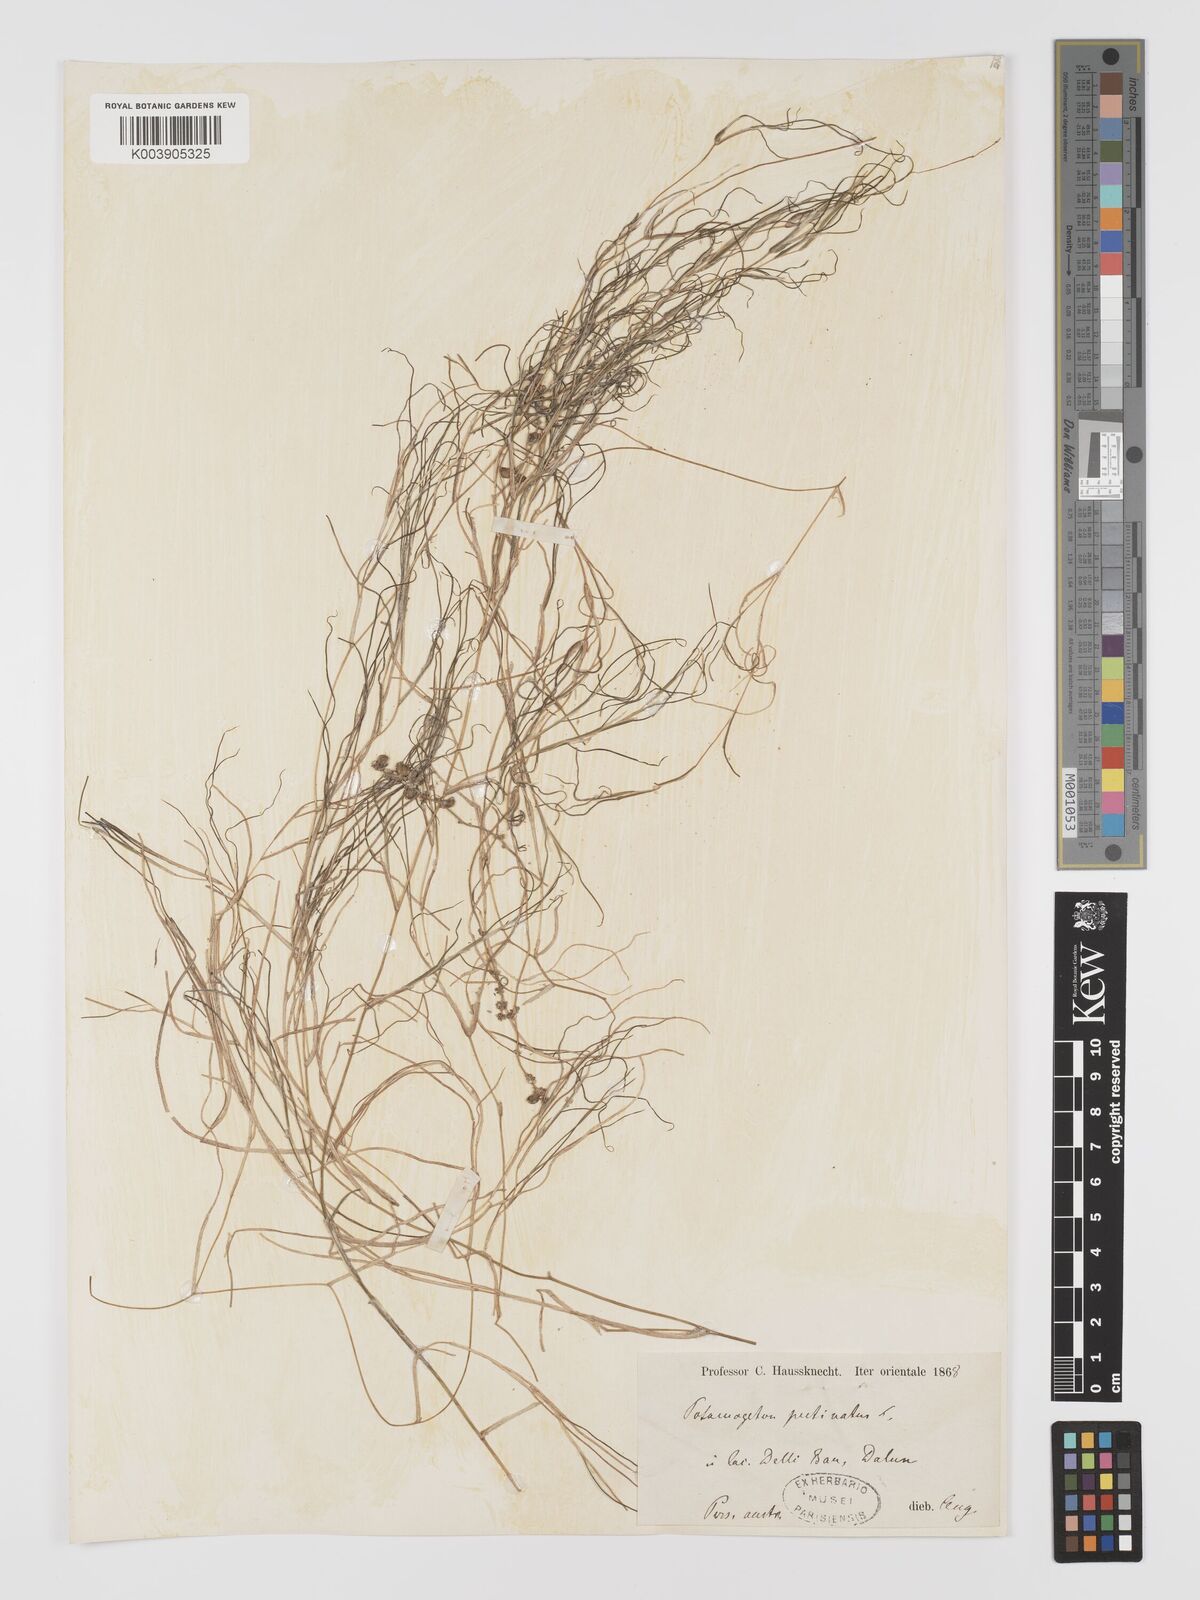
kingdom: Plantae
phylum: Tracheophyta
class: Liliopsida
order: Alismatales
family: Potamogetonaceae
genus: Stuckenia
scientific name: Stuckenia pectinata
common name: Sago pondweed
